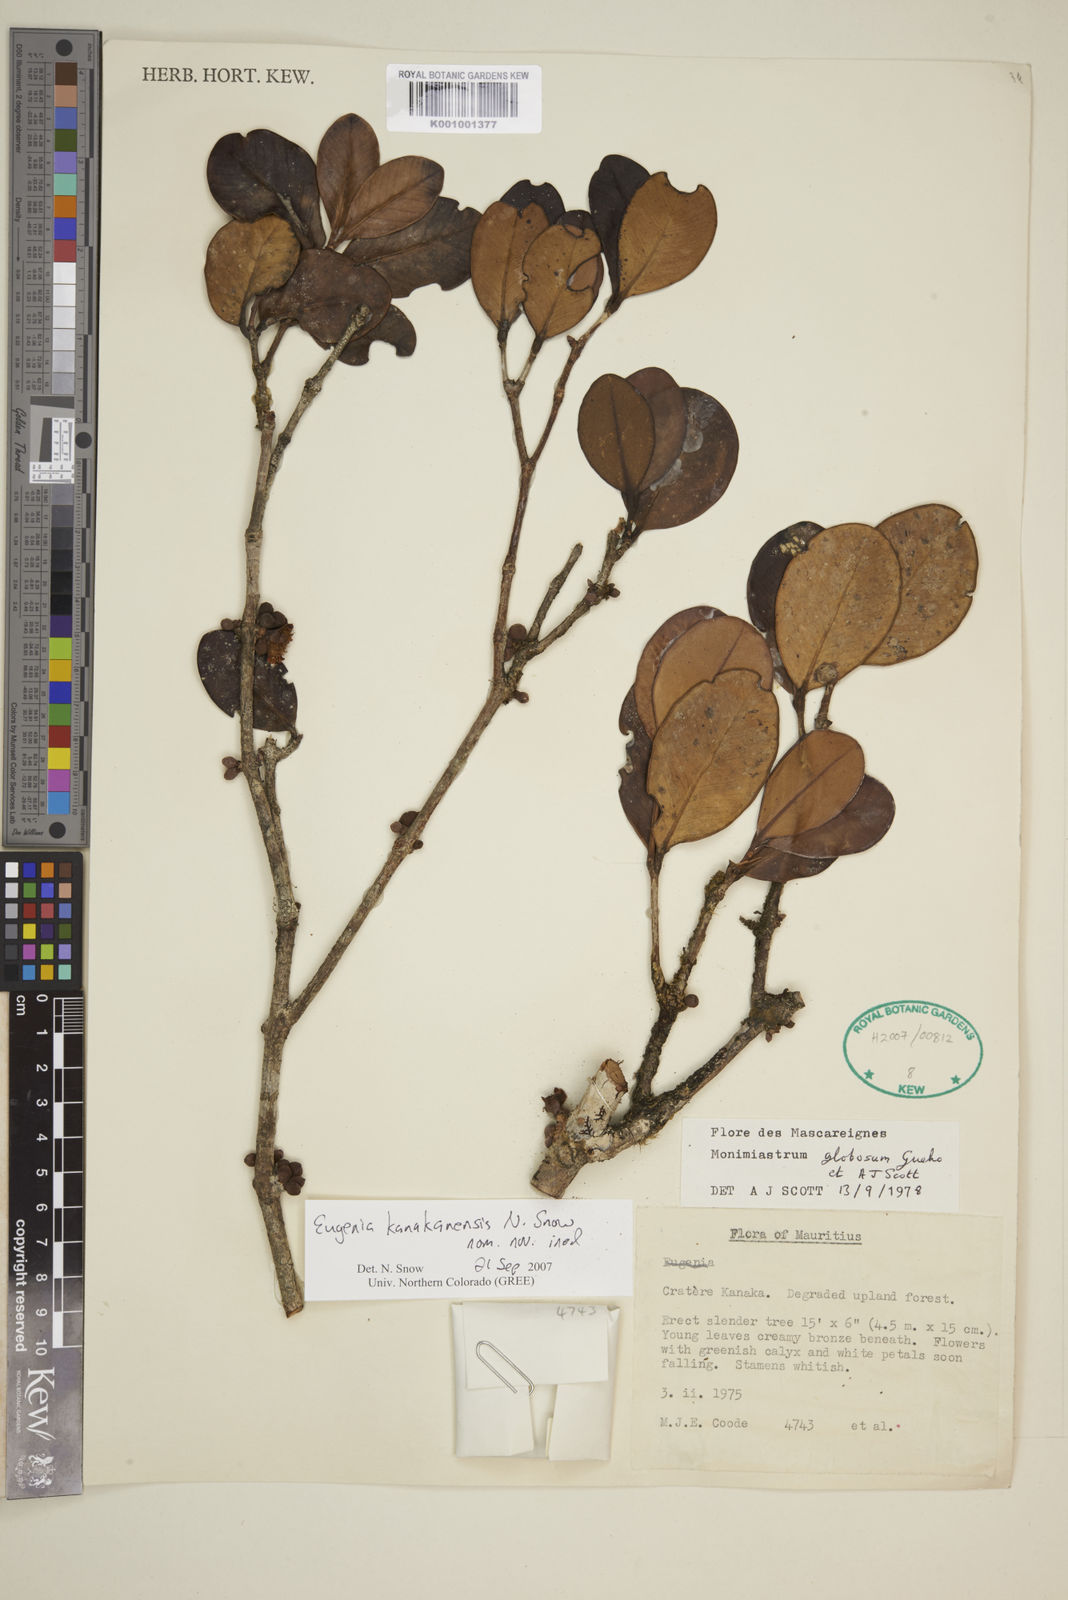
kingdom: Plantae
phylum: Tracheophyta
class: Magnoliopsida
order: Myrtales
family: Myrtaceae
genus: Eugenia
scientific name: Eugenia kanakana
